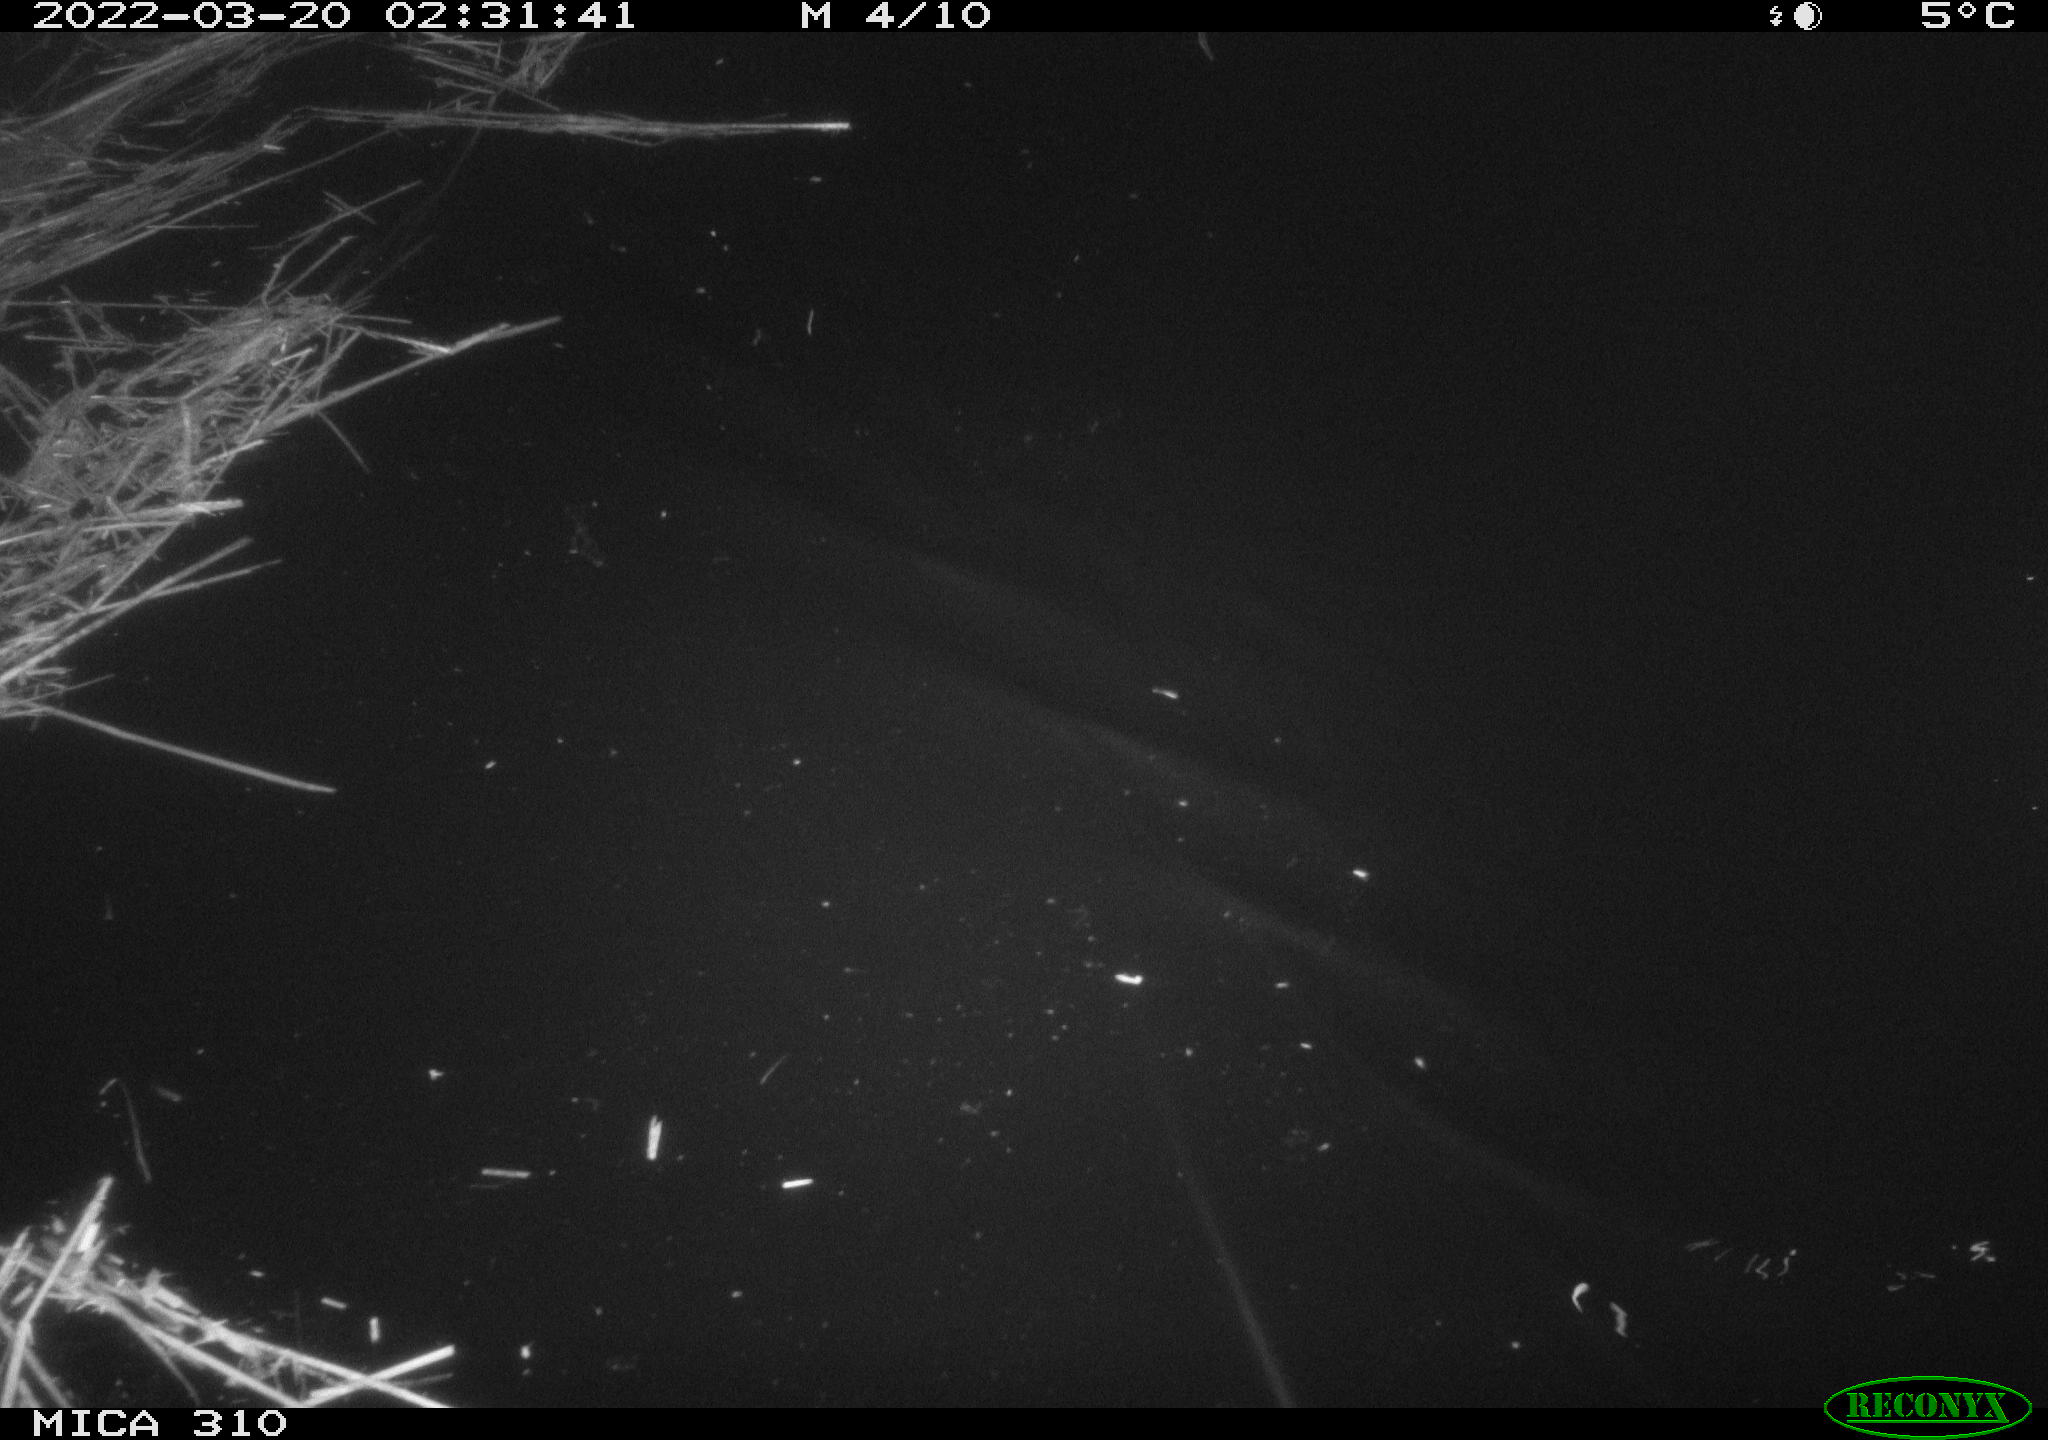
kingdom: Animalia
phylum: Chordata
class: Aves
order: Anseriformes
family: Anatidae
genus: Anas
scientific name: Anas platyrhynchos
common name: Mallard
